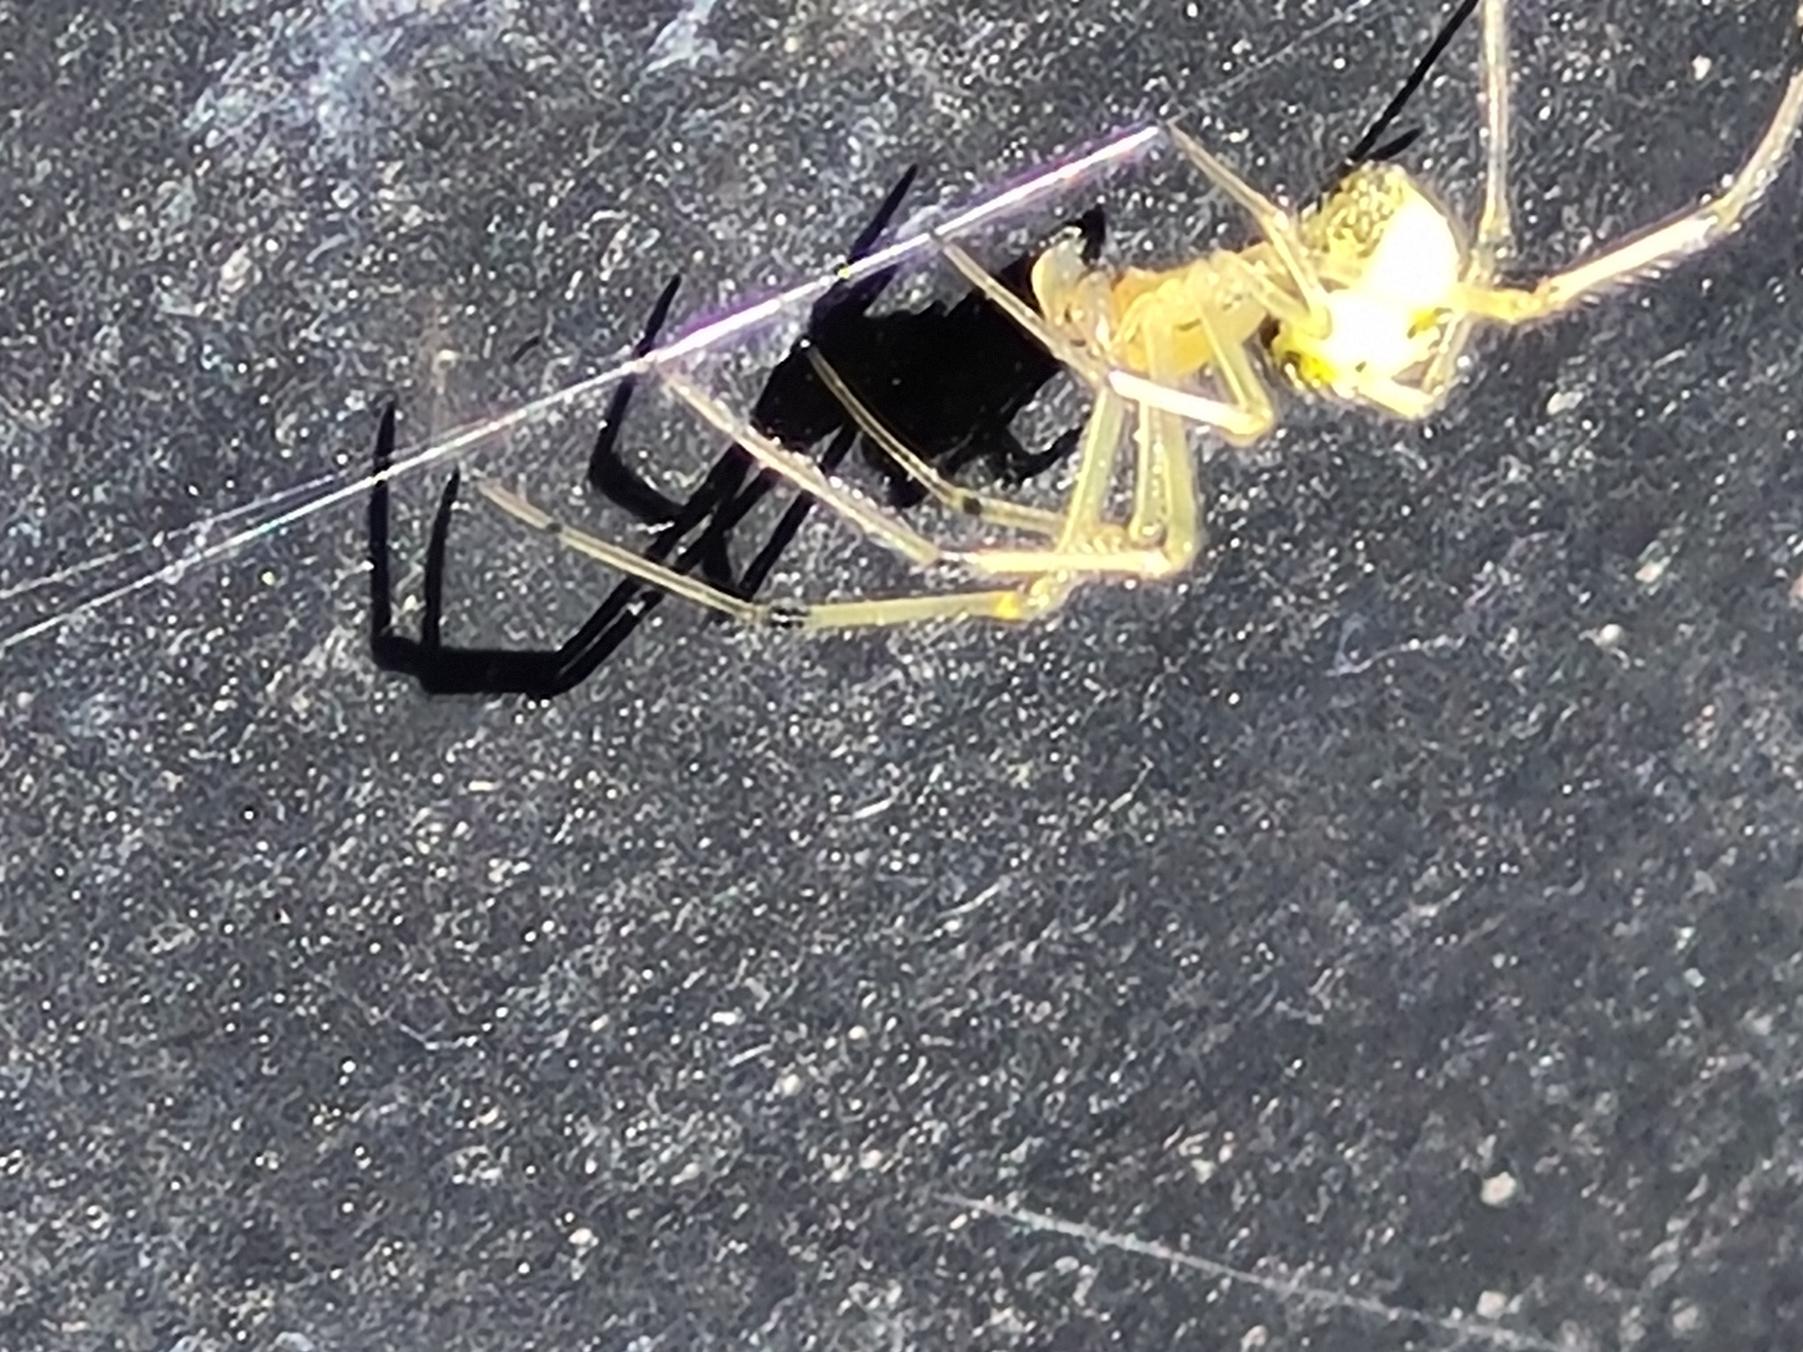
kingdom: Animalia
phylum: Arthropoda
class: Arachnida
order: Araneae
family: Theridiidae
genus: Enoplognatha
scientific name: Enoplognatha
